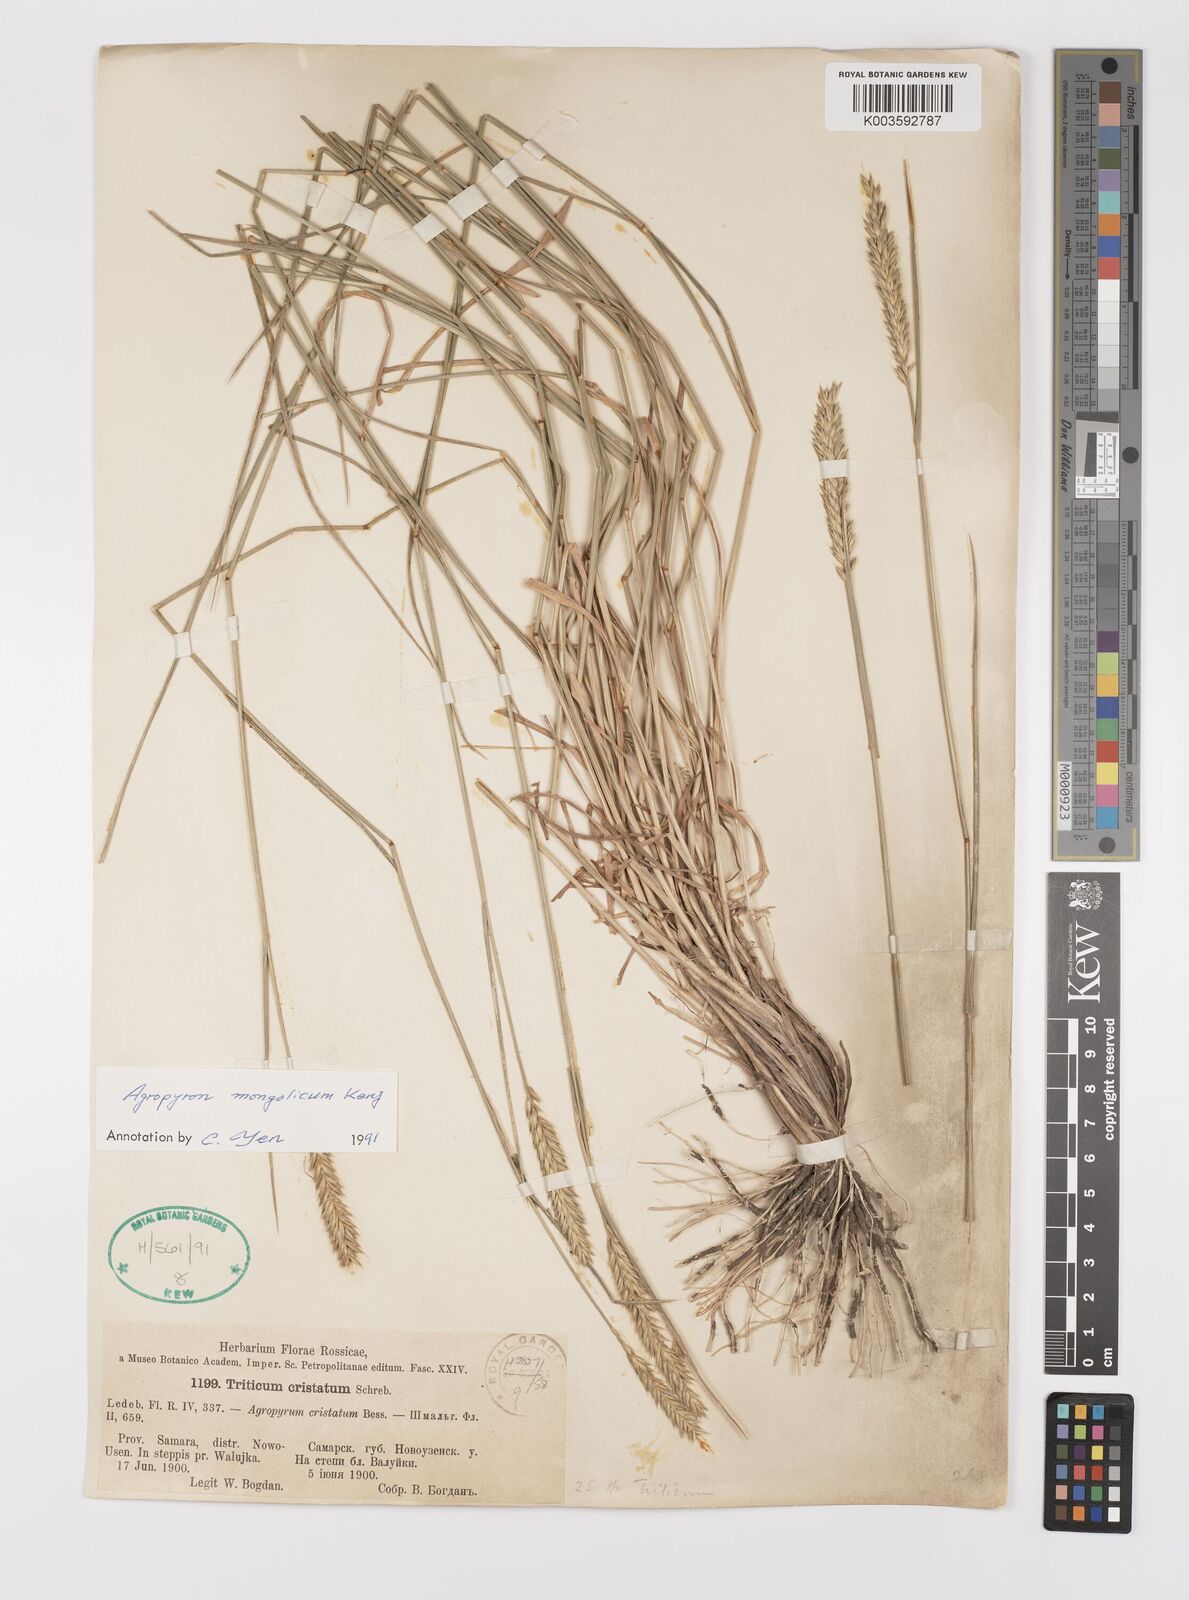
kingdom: Plantae
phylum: Tracheophyta
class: Liliopsida
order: Poales
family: Poaceae
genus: Agropyron
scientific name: Agropyron mongolicum
